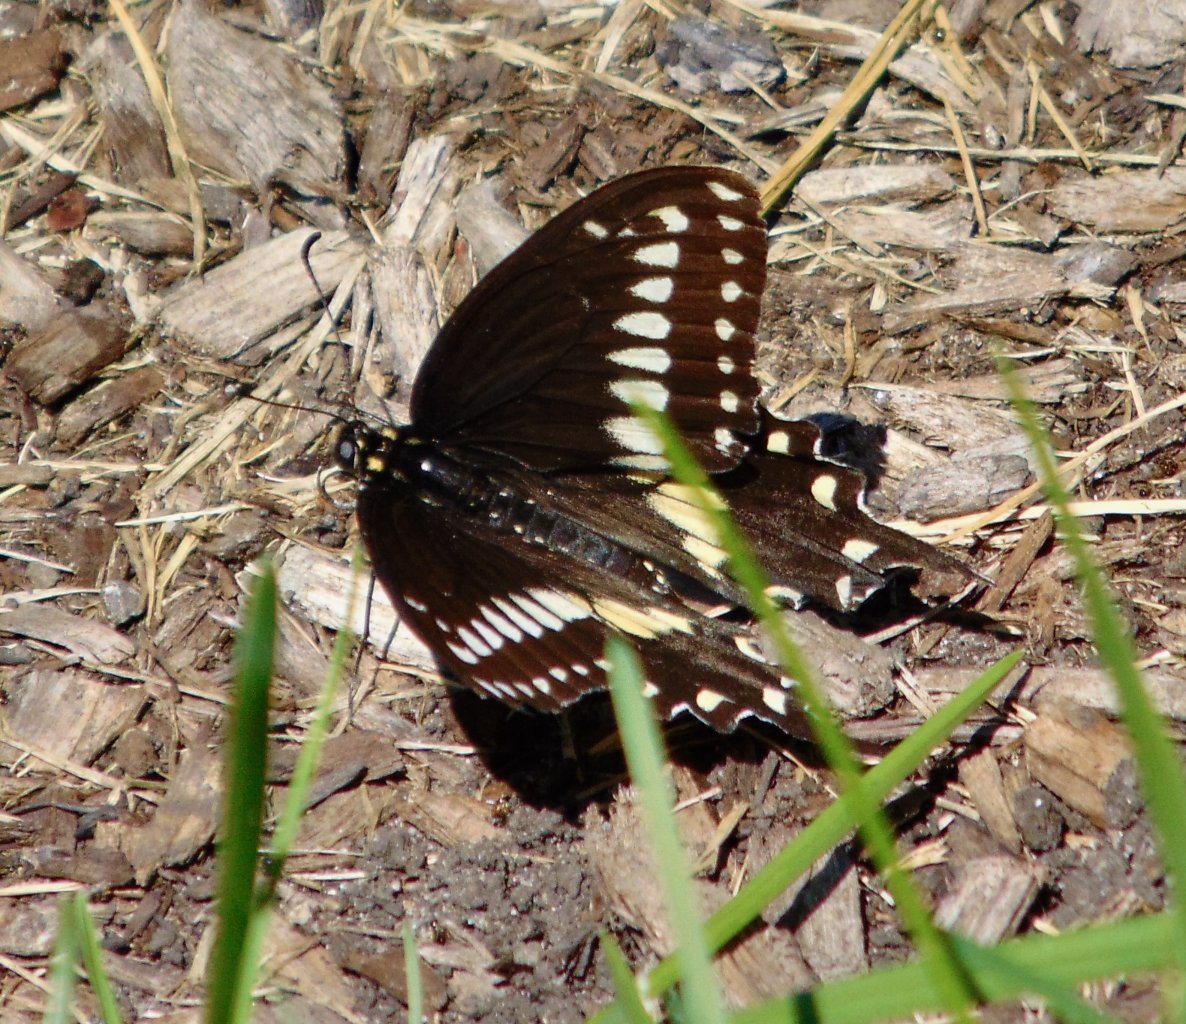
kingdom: Animalia
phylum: Arthropoda
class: Insecta
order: Lepidoptera
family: Papilionidae
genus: Papilio
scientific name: Papilio polyxenes
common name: Black Swallowtail
